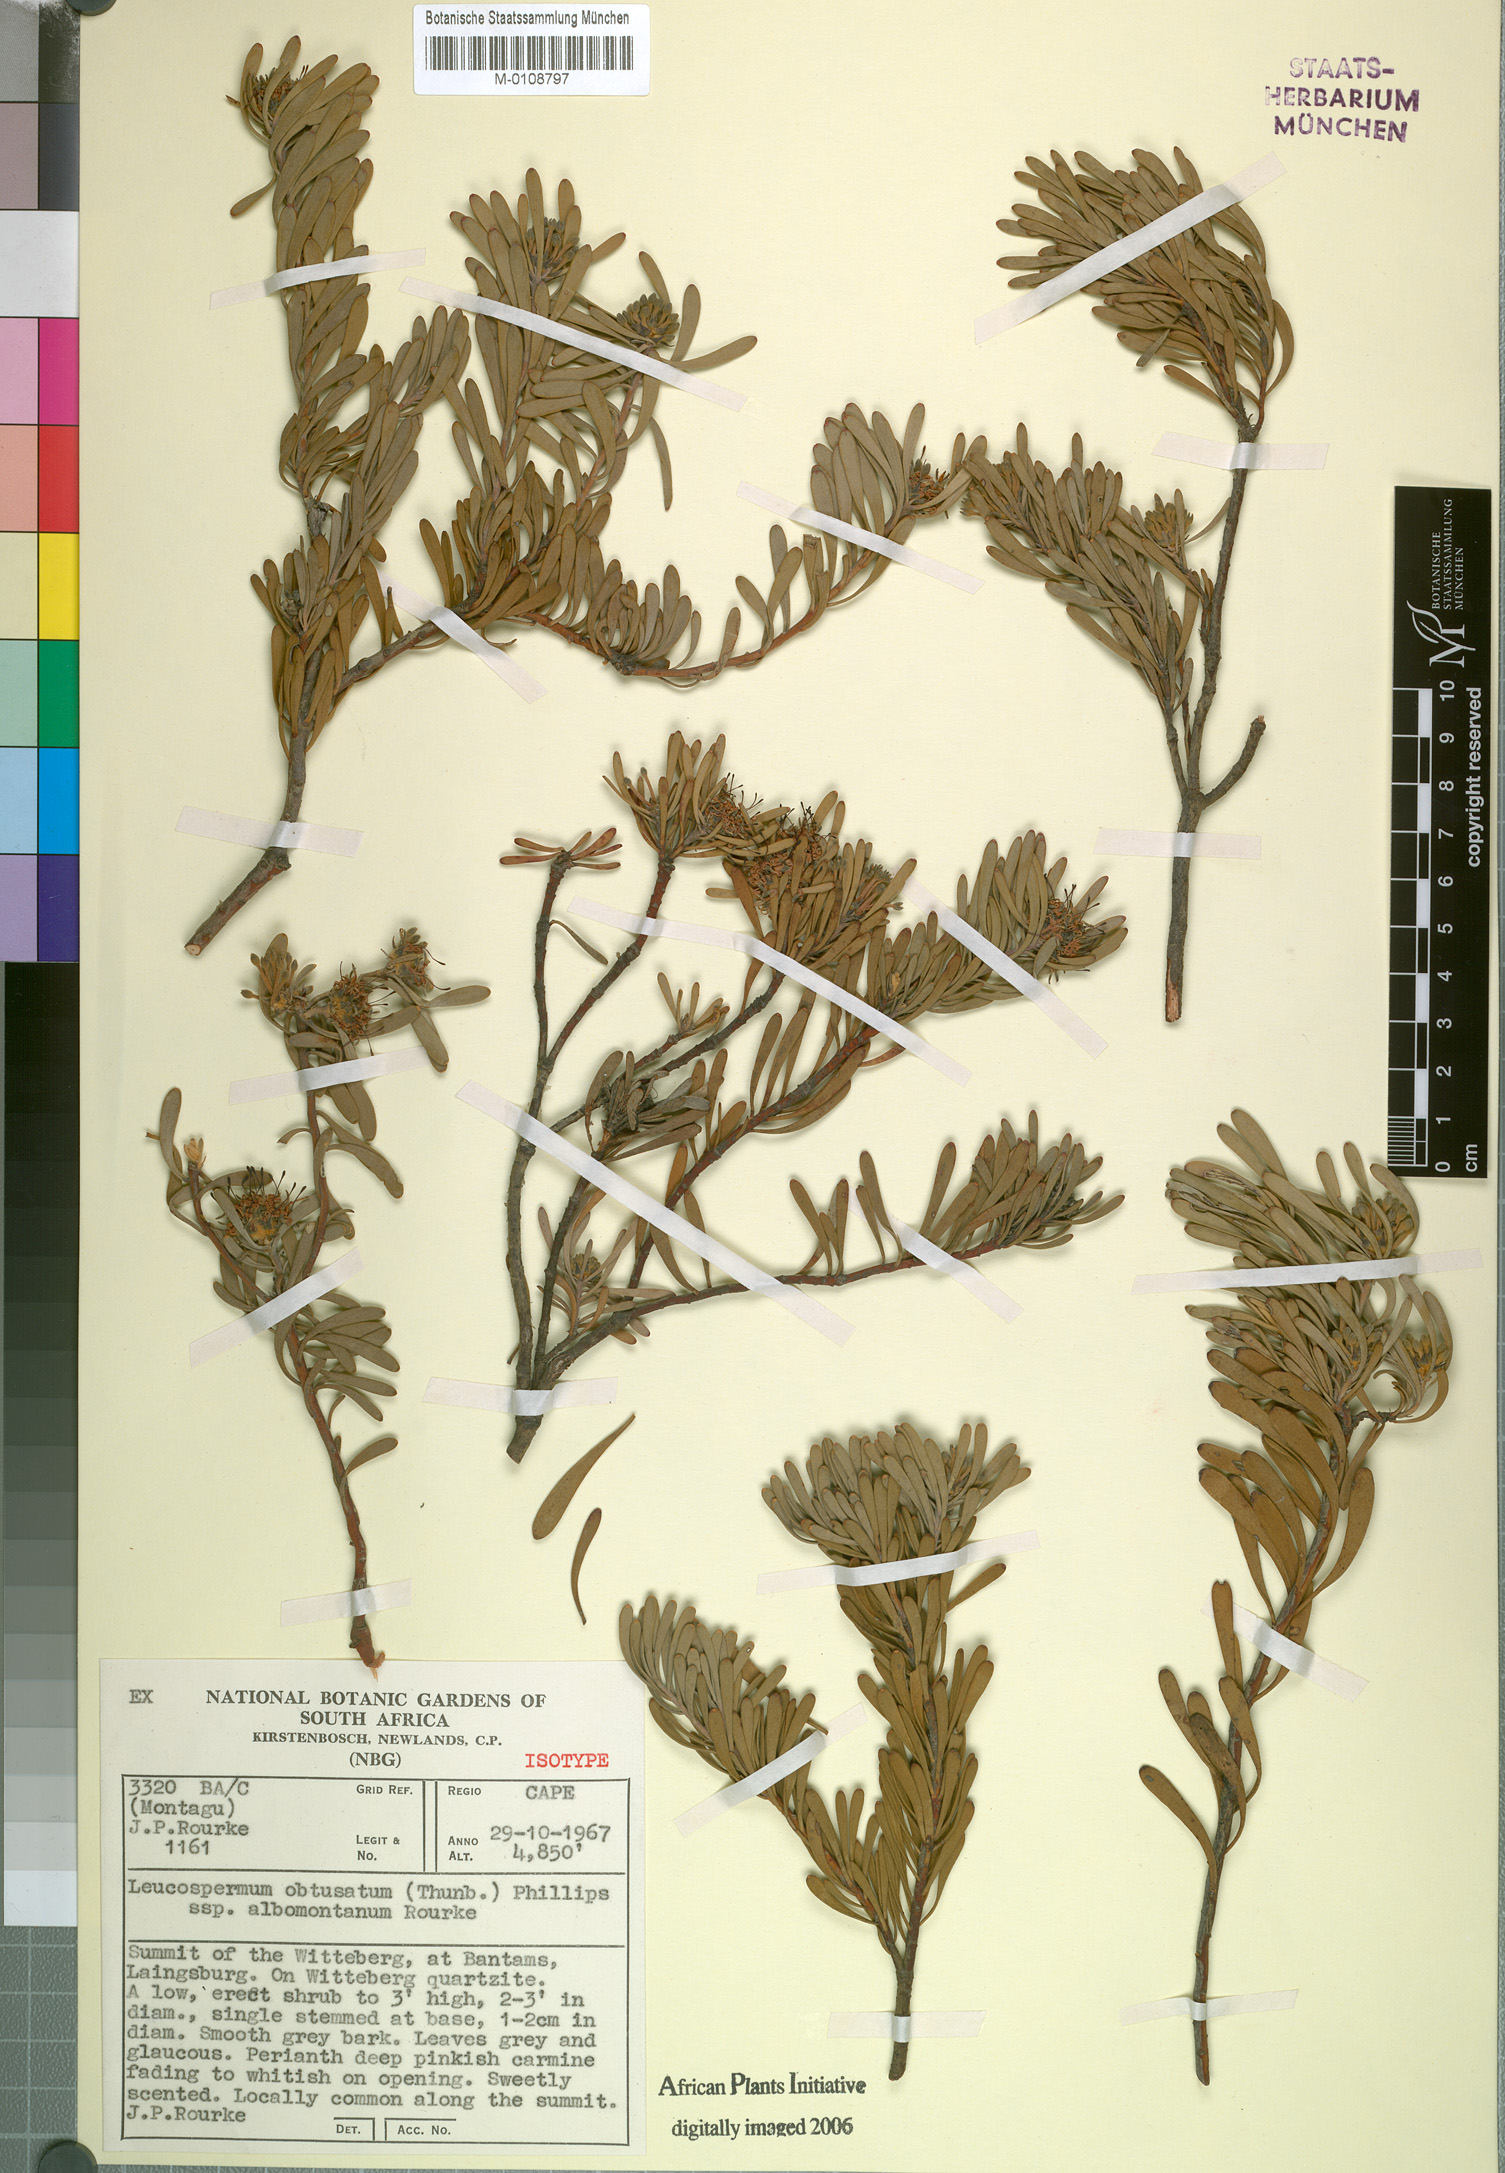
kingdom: Plantae
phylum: Tracheophyta
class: Magnoliopsida
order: Proteales
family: Proteaceae
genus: Vexatorella
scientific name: Vexatorella obtusata
